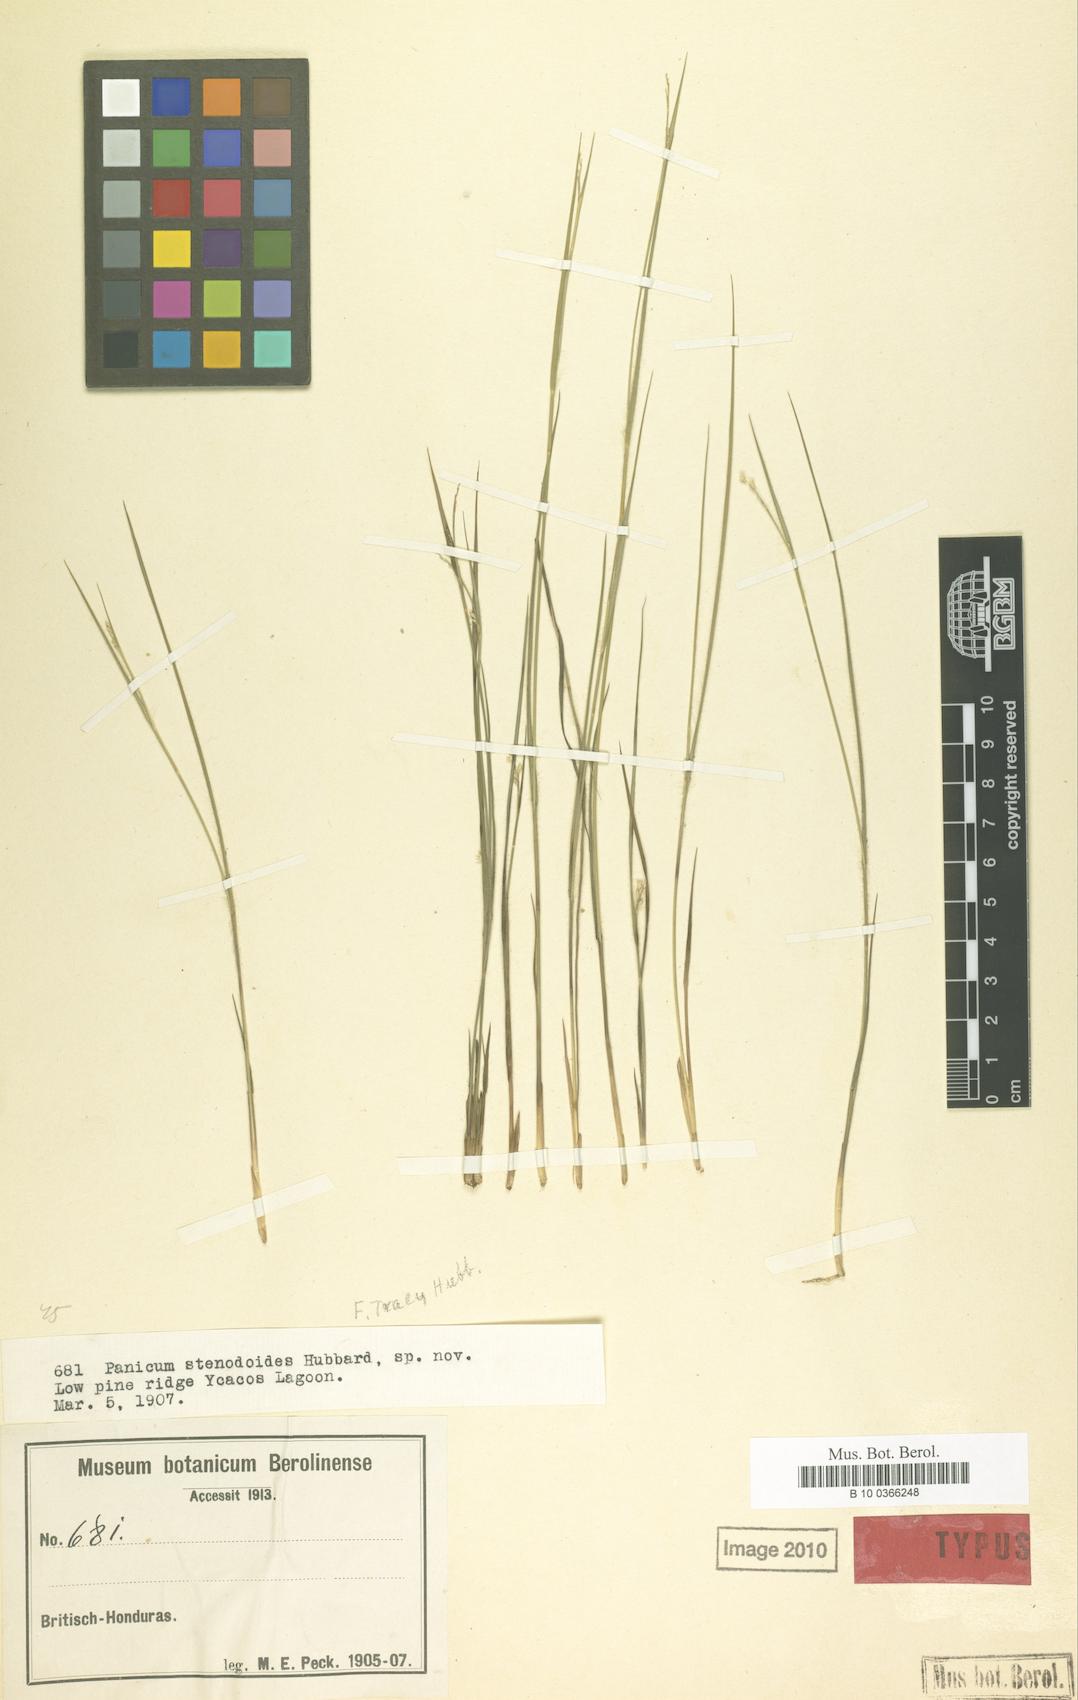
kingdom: Plantae
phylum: Tracheophyta
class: Liliopsida
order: Poales
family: Poaceae
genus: Coleataenia
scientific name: Coleataenia caricoides
